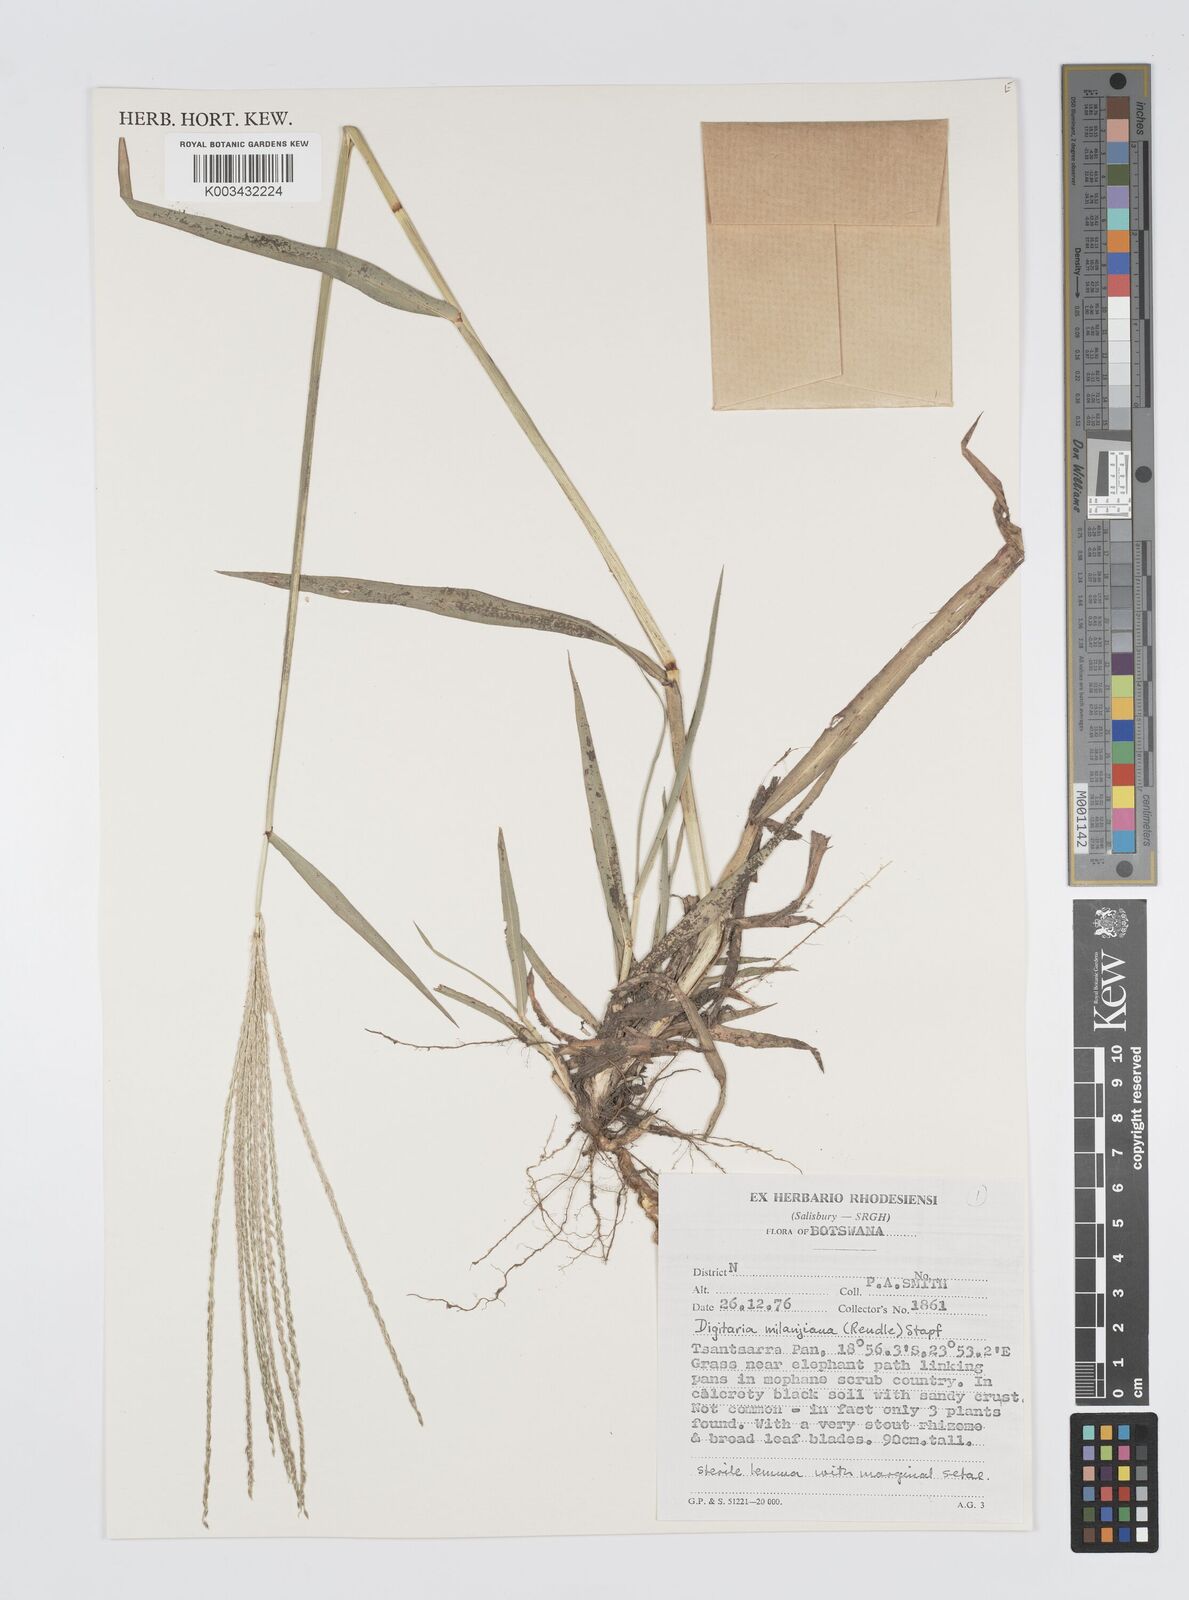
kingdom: Plantae
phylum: Tracheophyta
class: Liliopsida
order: Poales
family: Poaceae
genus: Digitaria
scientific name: Digitaria milanjiana
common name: Madagascar crabgrass
